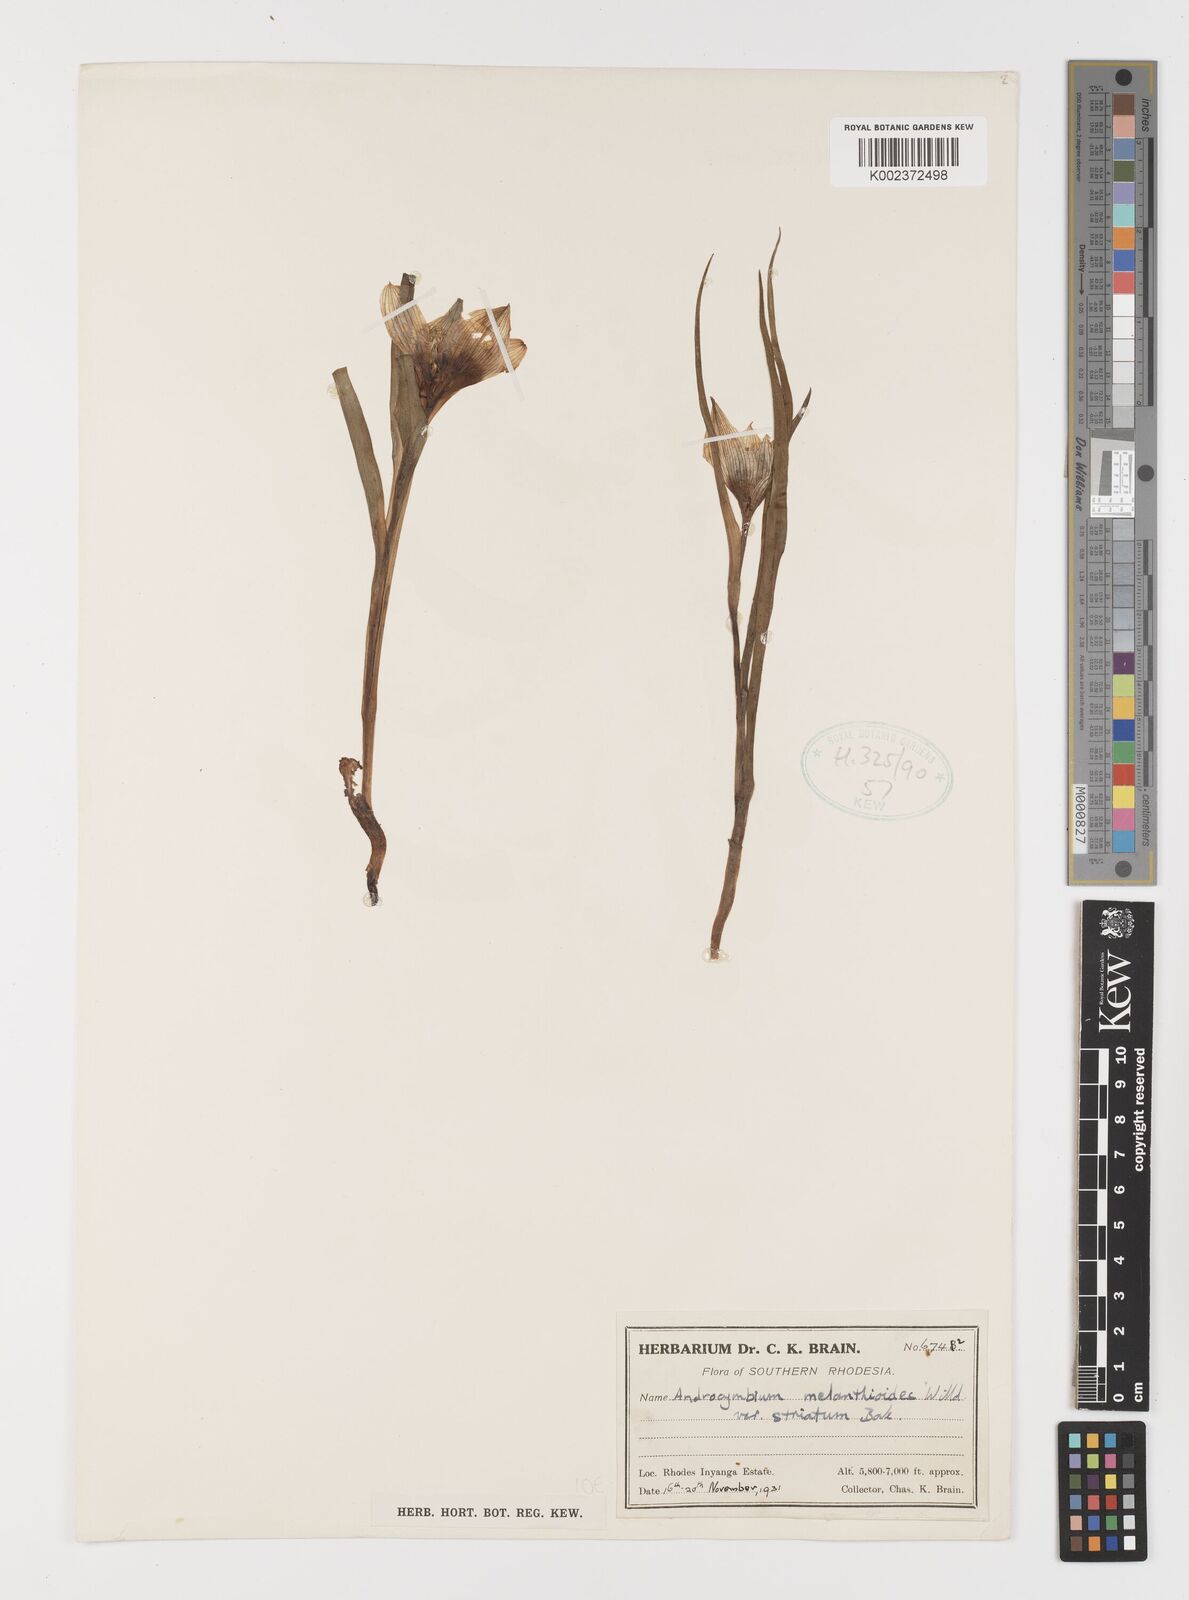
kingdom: Plantae
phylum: Tracheophyta
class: Liliopsida
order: Liliales
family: Colchicaceae
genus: Colchicum
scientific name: Colchicum striatum
